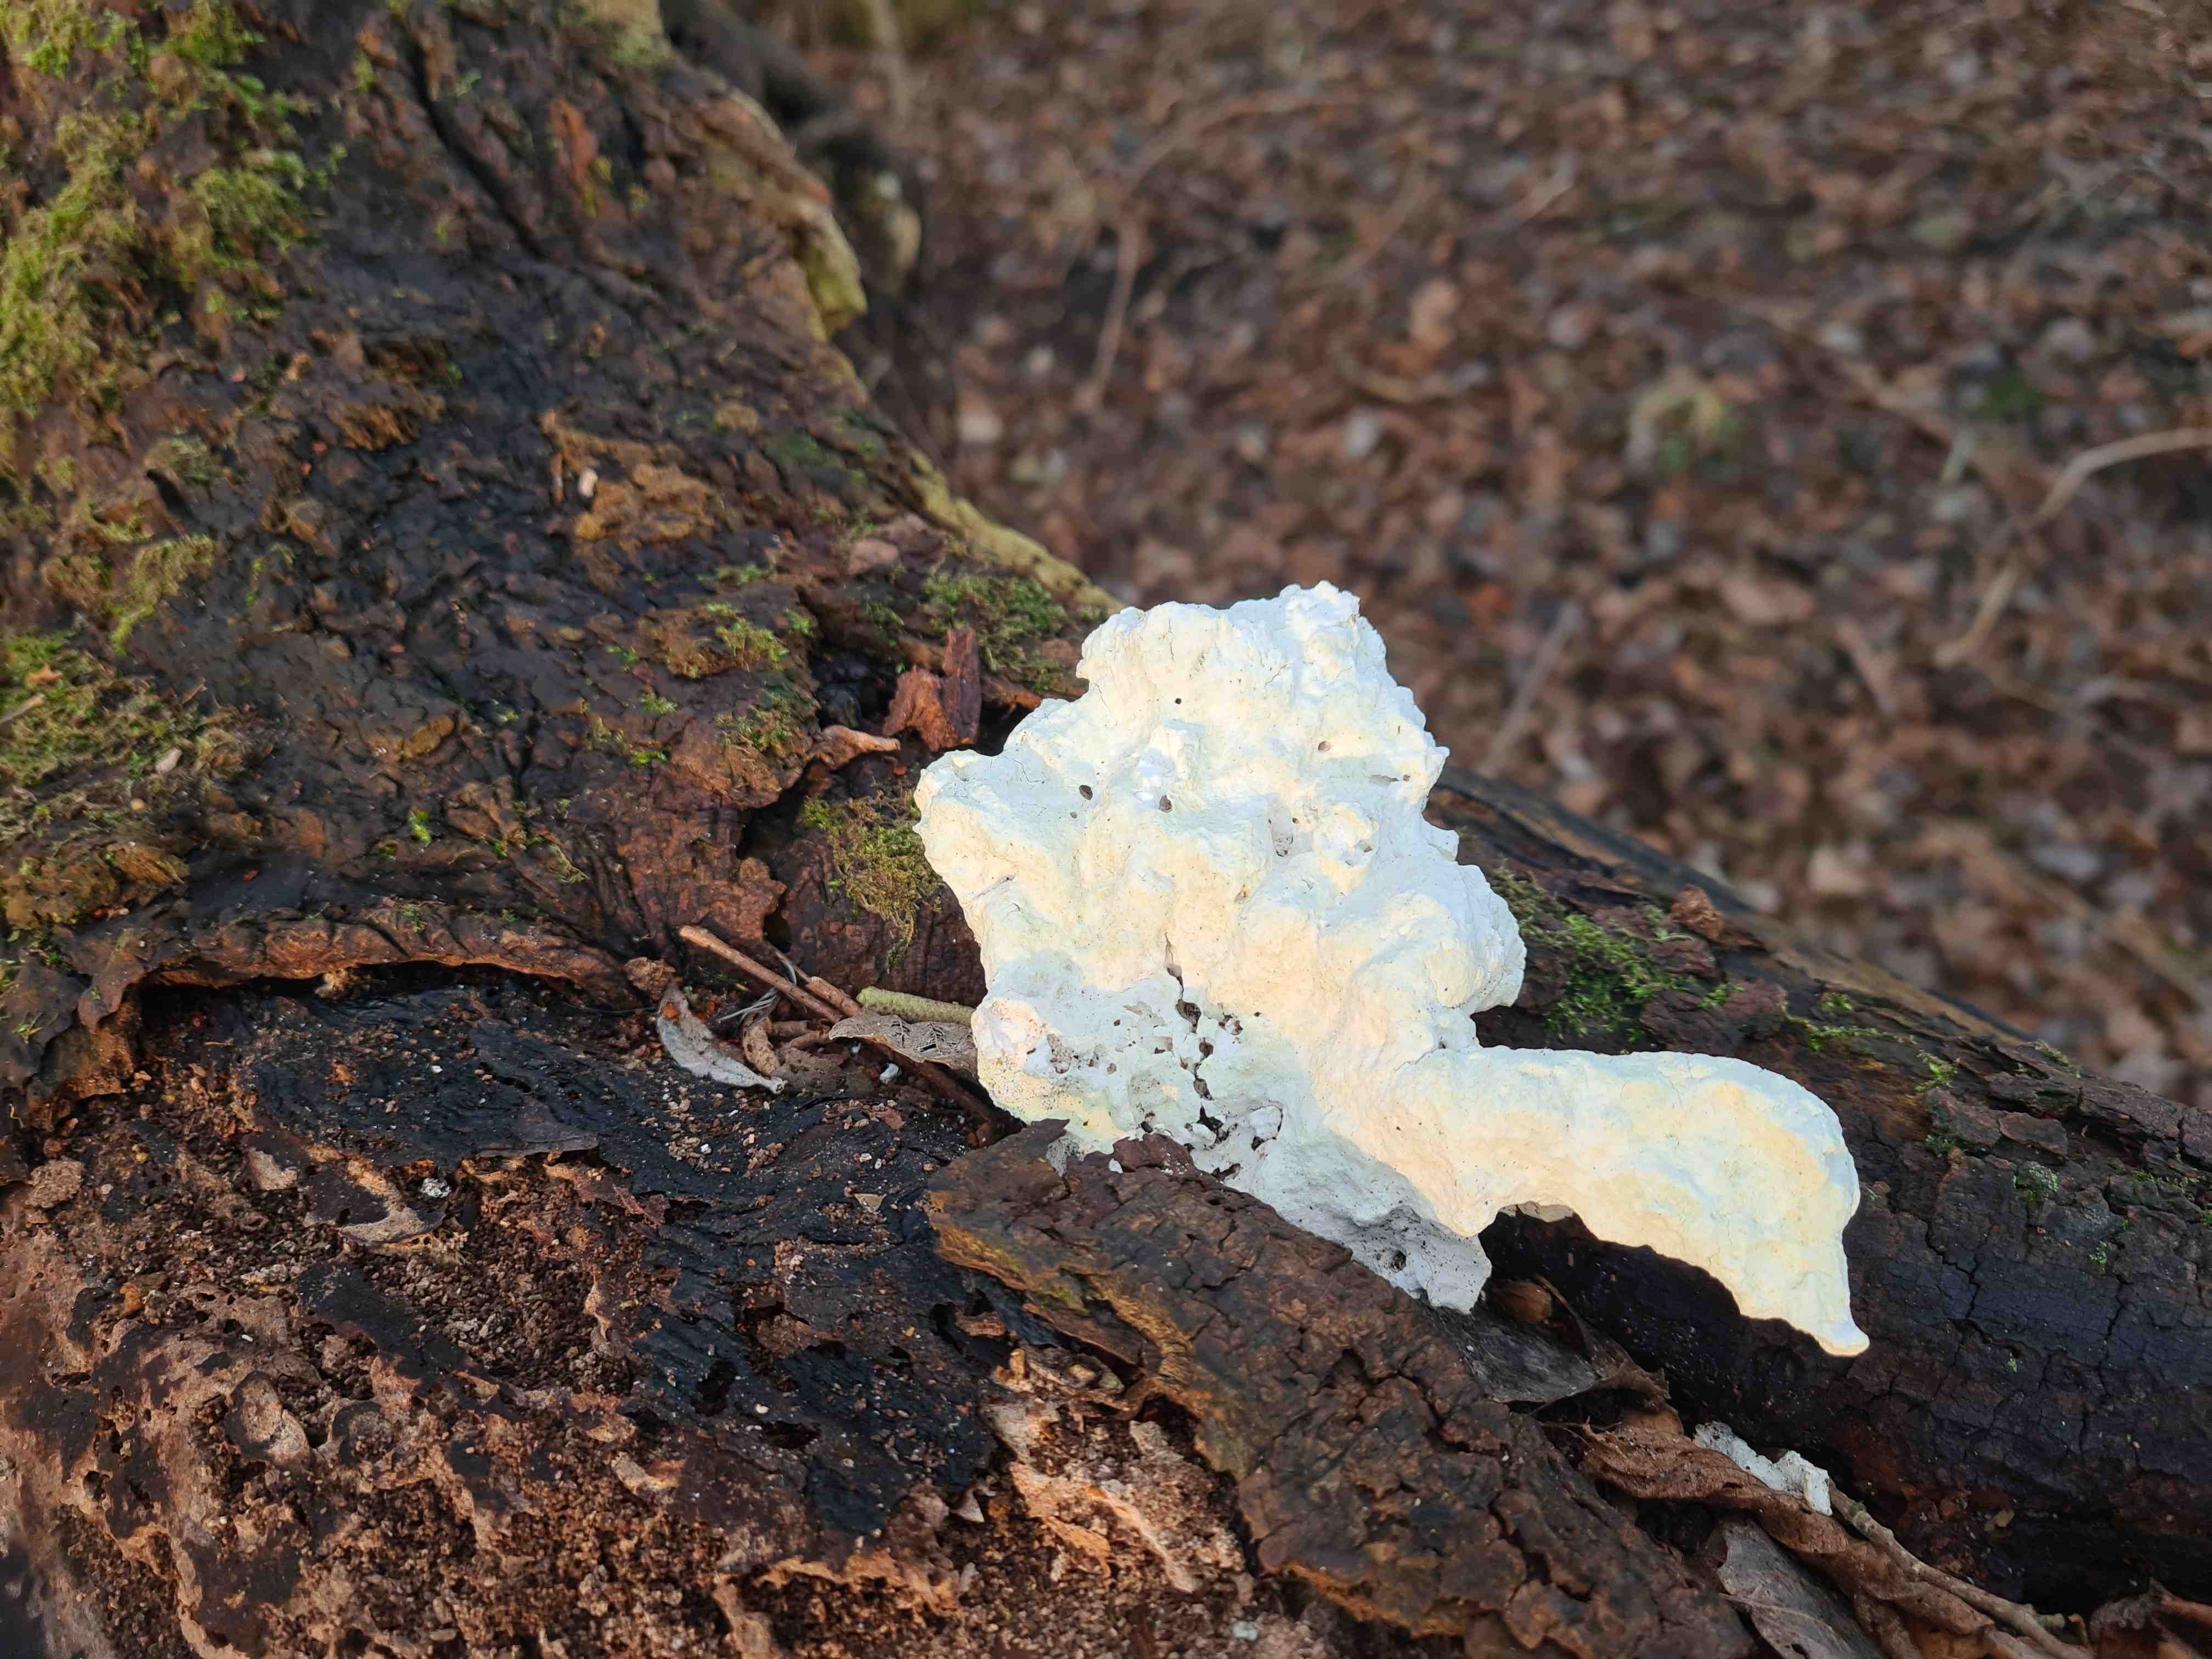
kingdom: Fungi
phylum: Basidiomycota
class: Agaricomycetes
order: Polyporales
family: Polyporaceae
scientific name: Polyporaceae
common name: poresvampfamilien
